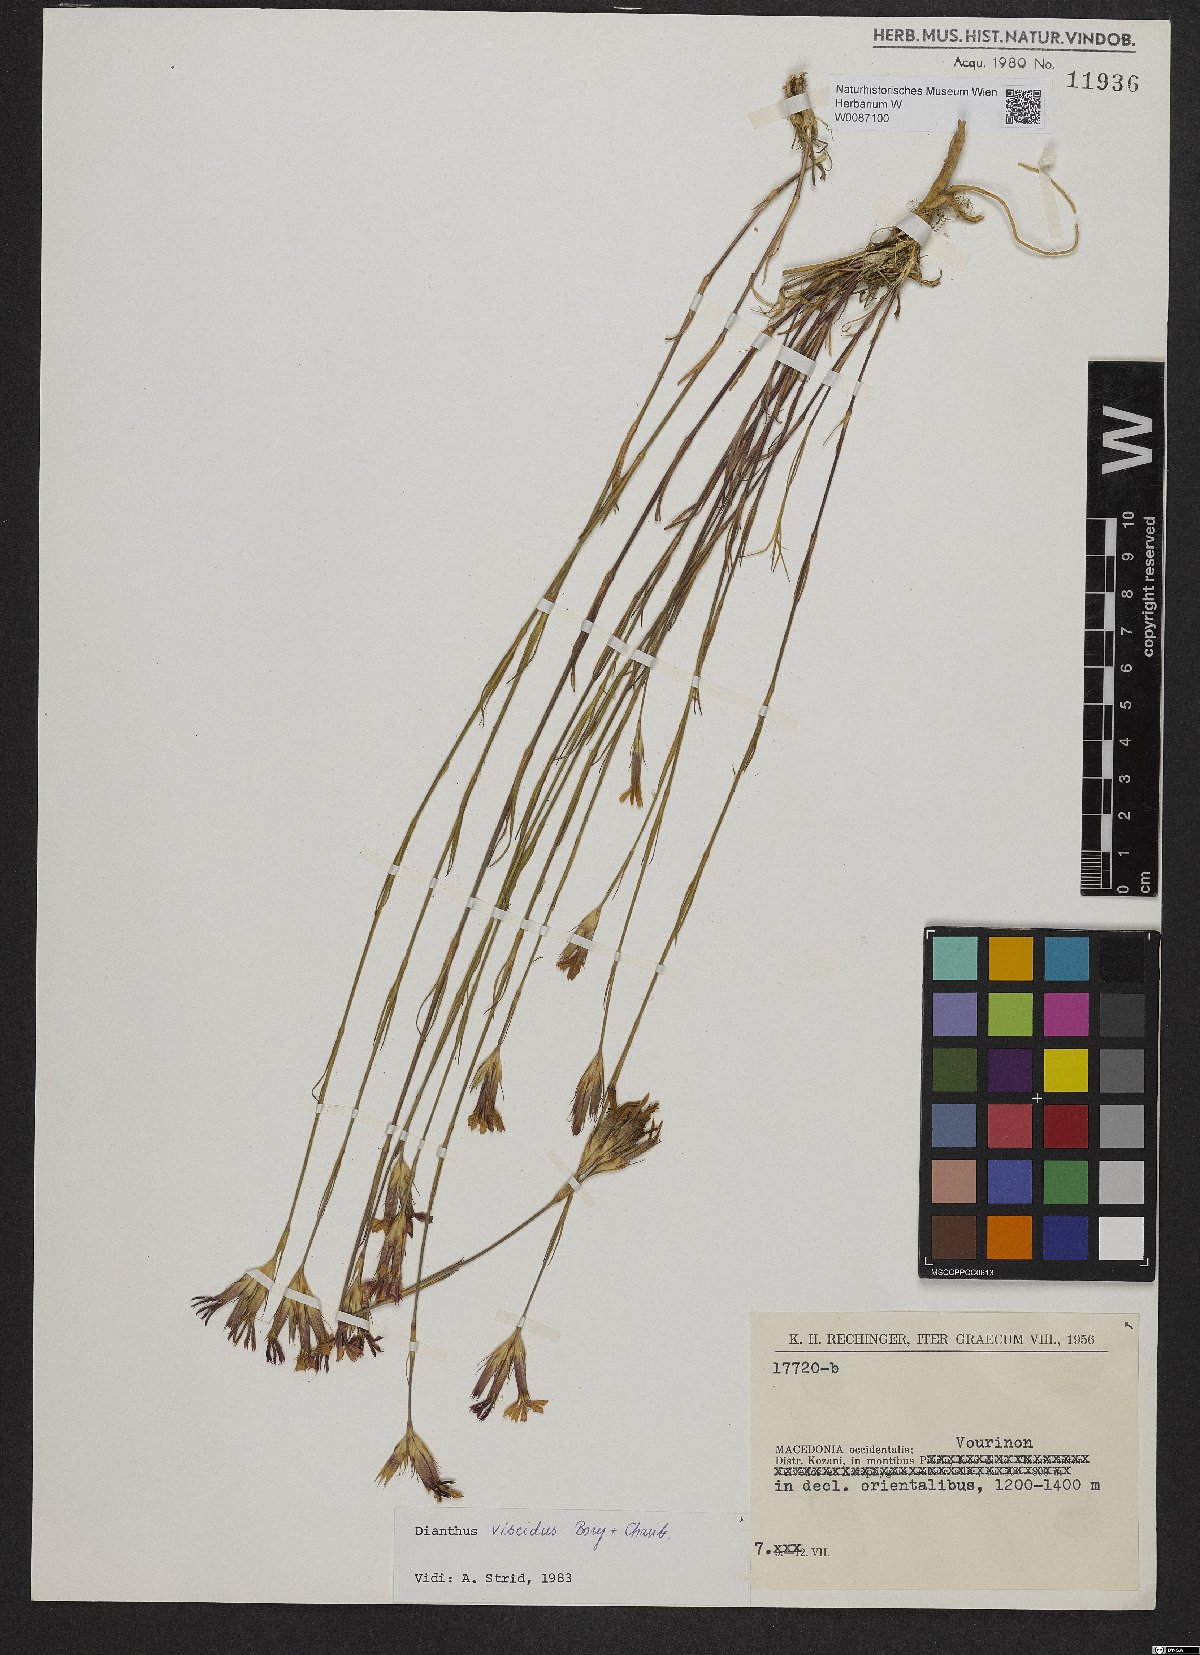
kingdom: Plantae
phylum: Tracheophyta
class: Magnoliopsida
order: Caryophyllales
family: Caryophyllaceae
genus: Dianthus
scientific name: Dianthus viscidus
